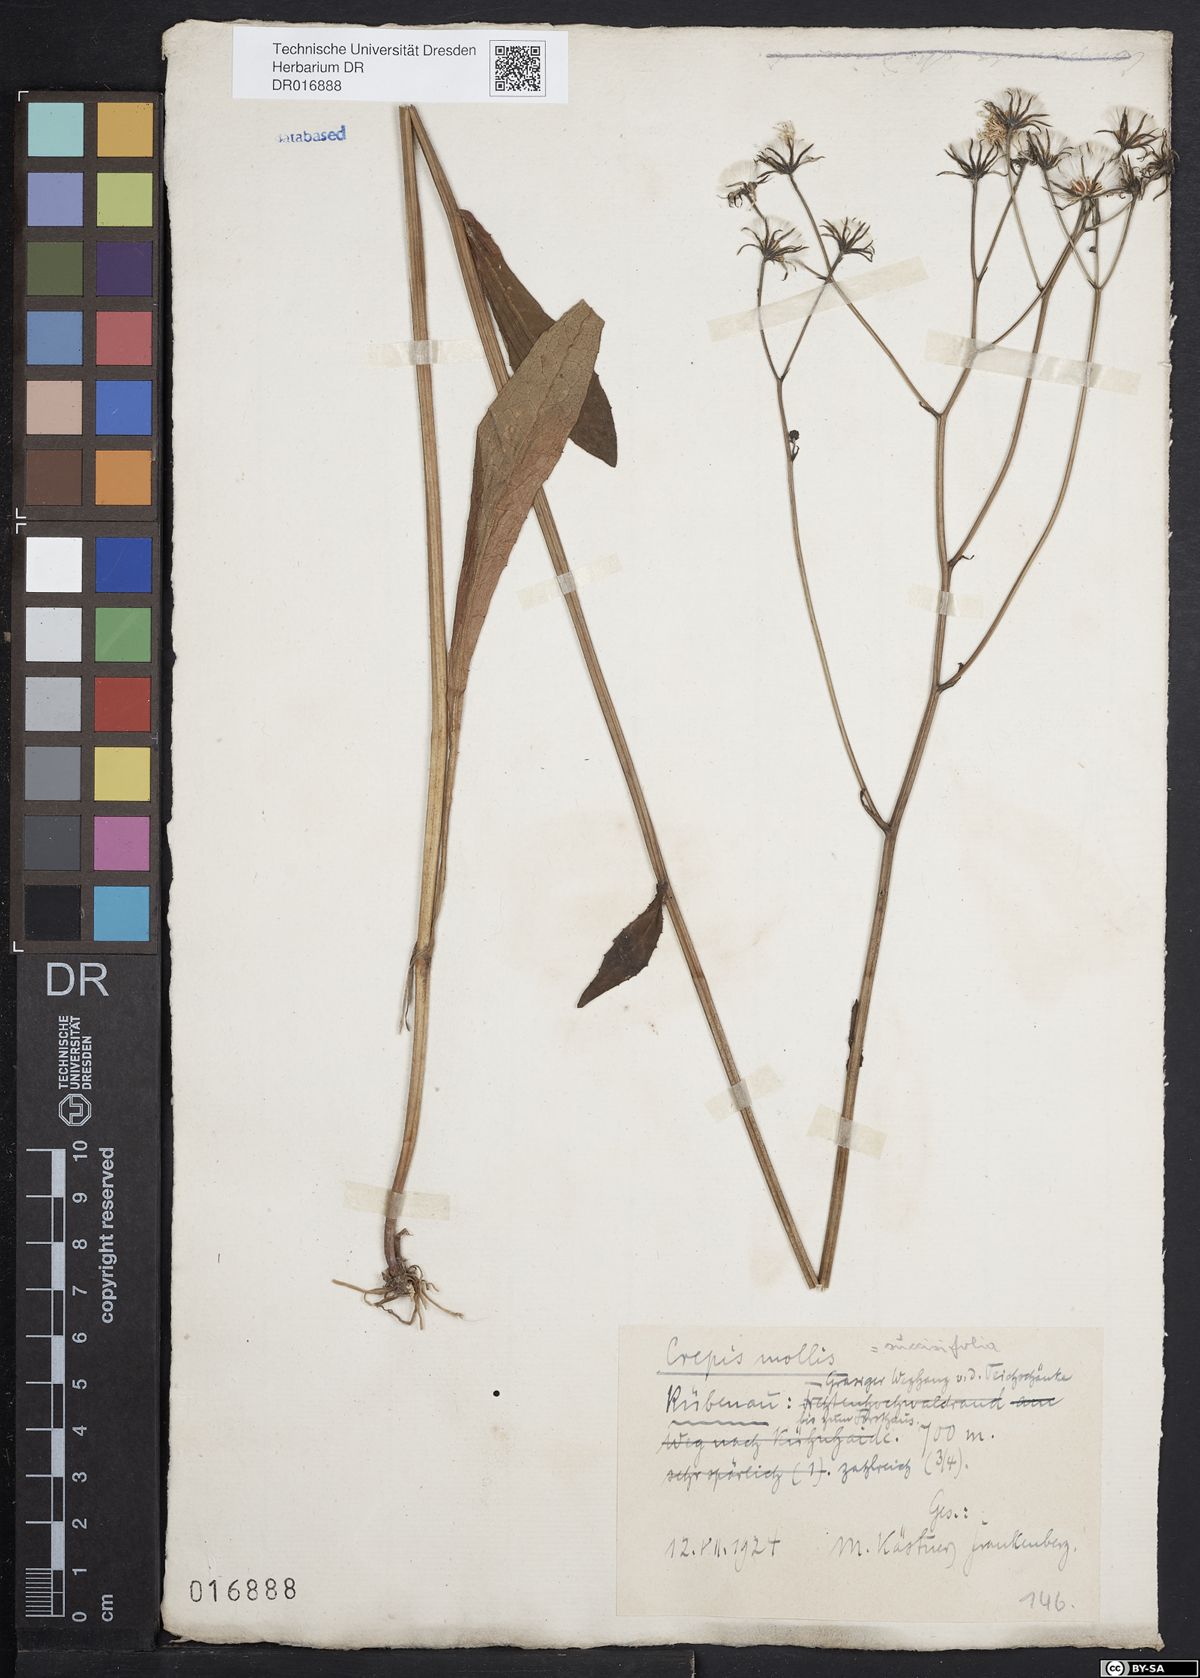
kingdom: Plantae
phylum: Tracheophyta
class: Magnoliopsida
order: Asterales
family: Asteraceae
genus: Crepis
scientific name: Crepis mollis
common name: Northern hawk's-beard
